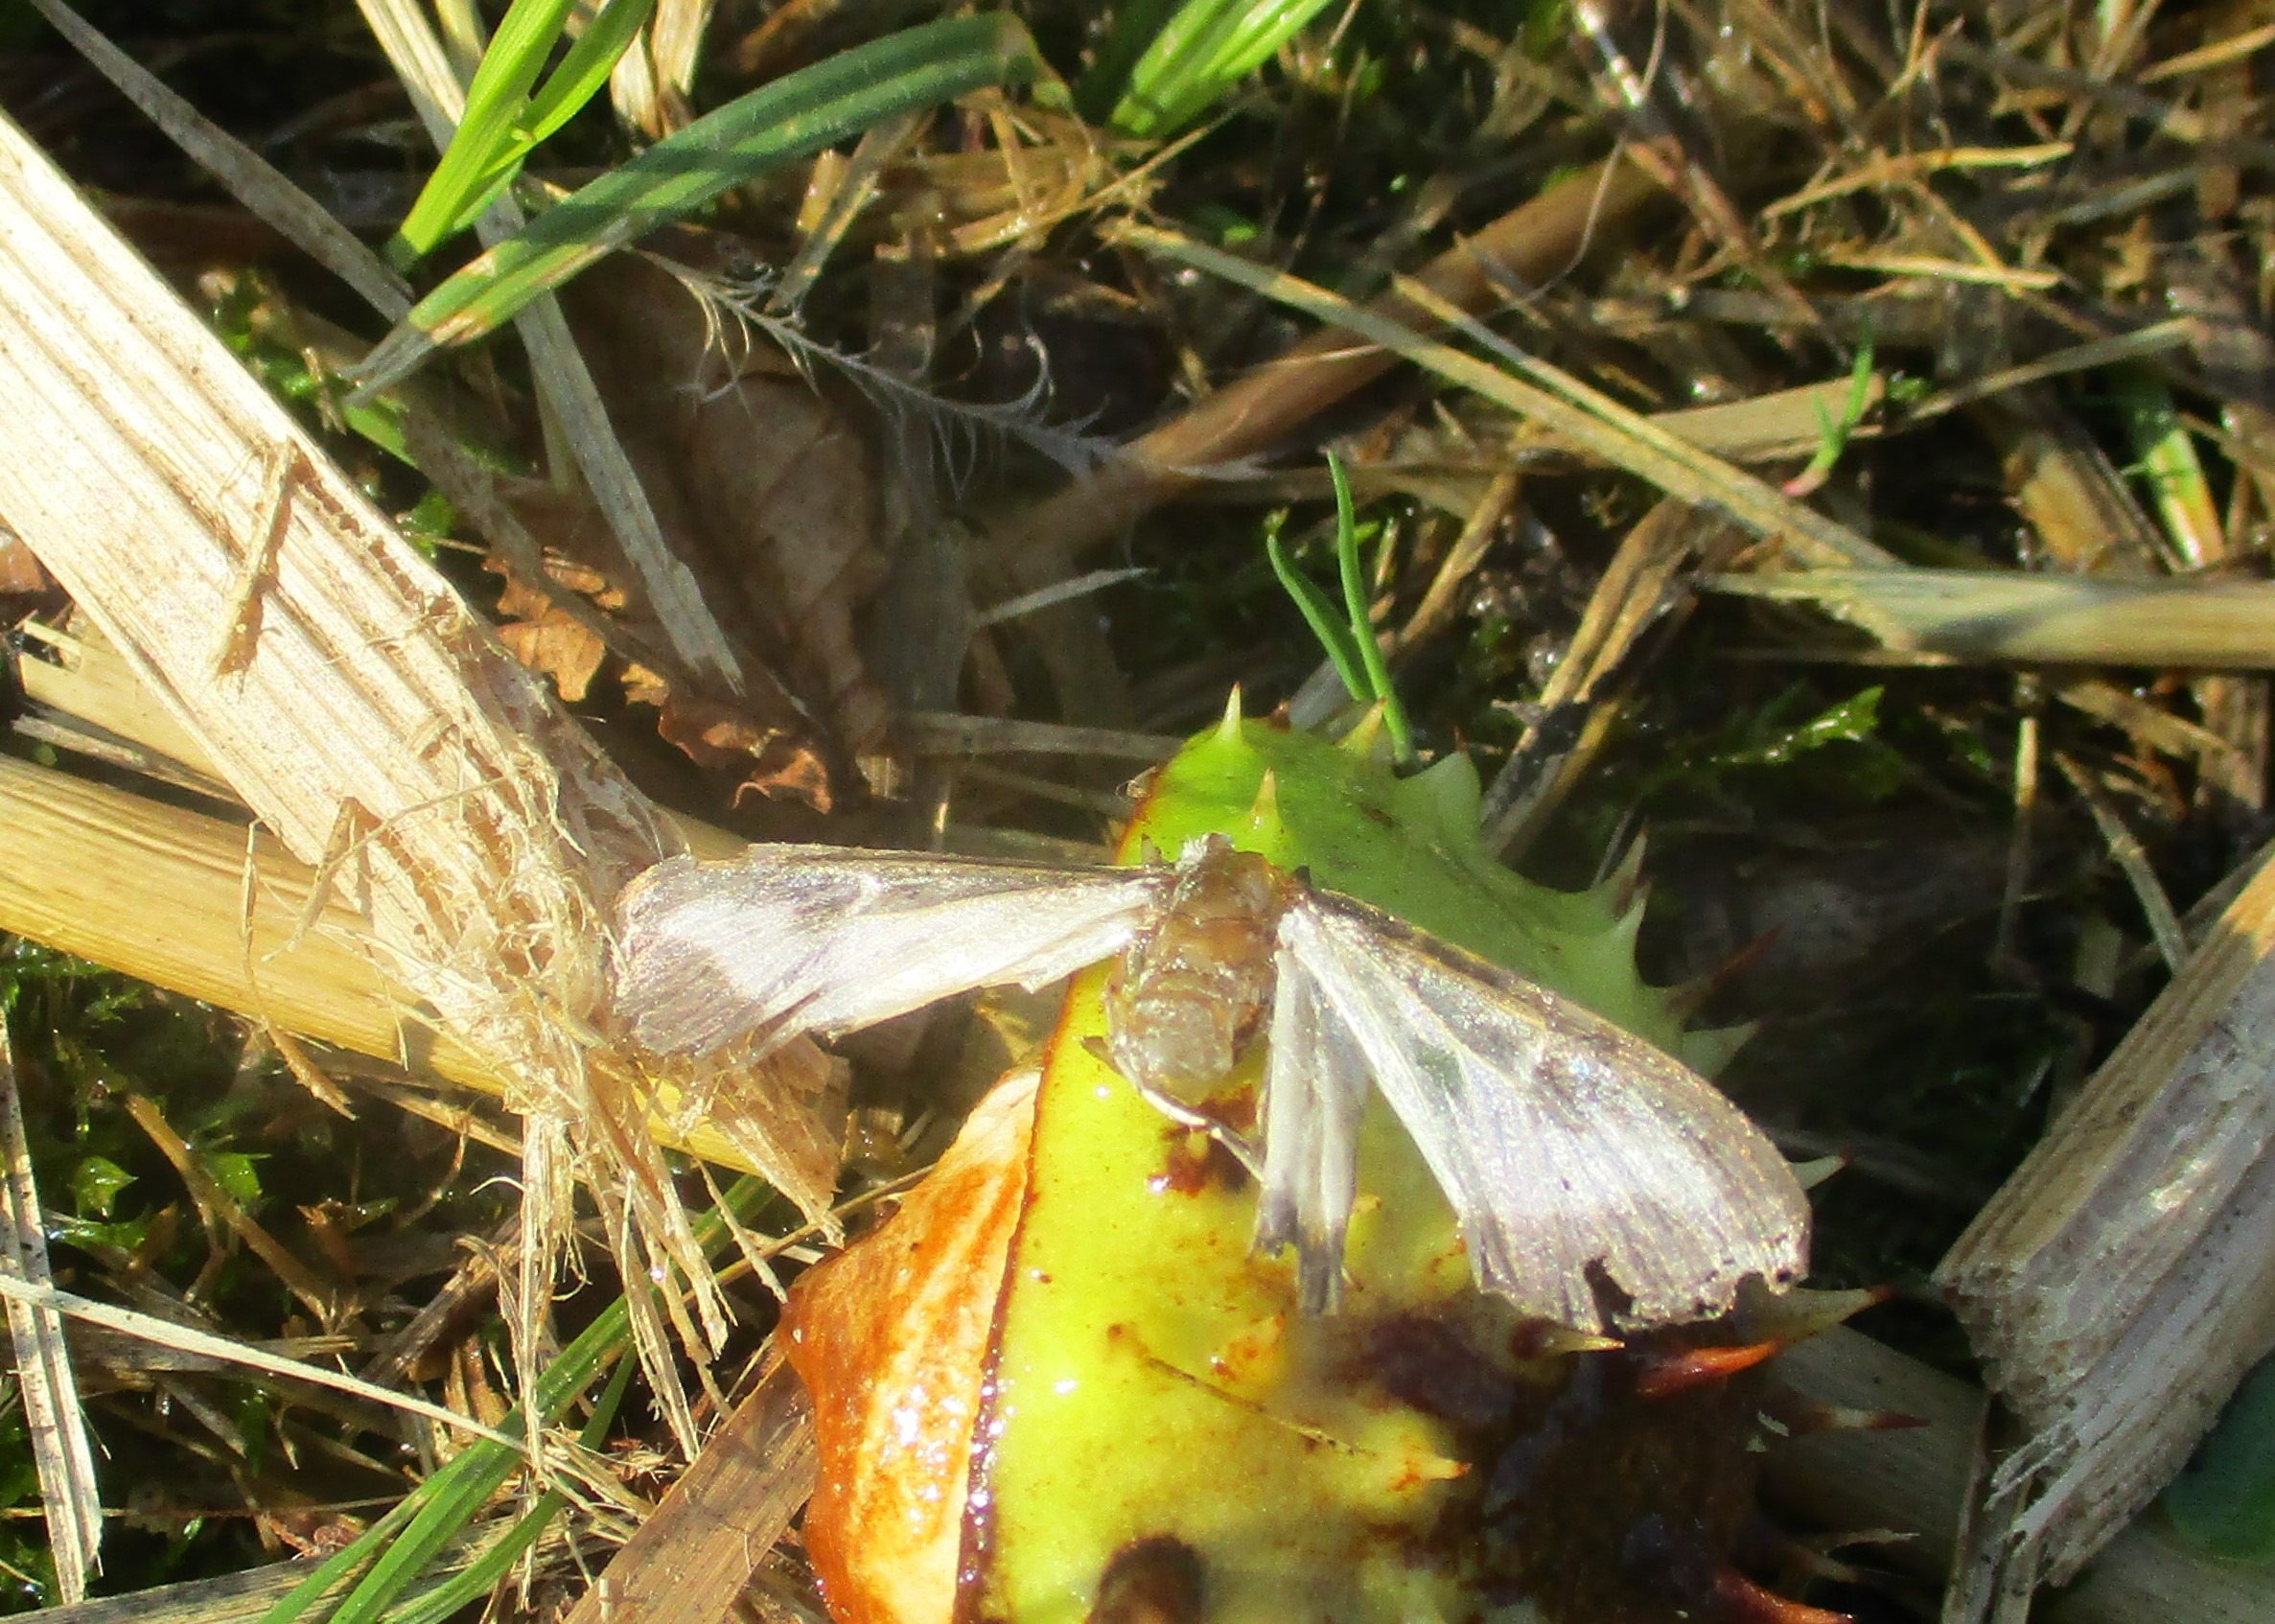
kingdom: Animalia
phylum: Arthropoda
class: Insecta
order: Lepidoptera
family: Crambidae
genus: Cydalima
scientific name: Cydalima perspectalis
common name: Buksbomhalvmøl
